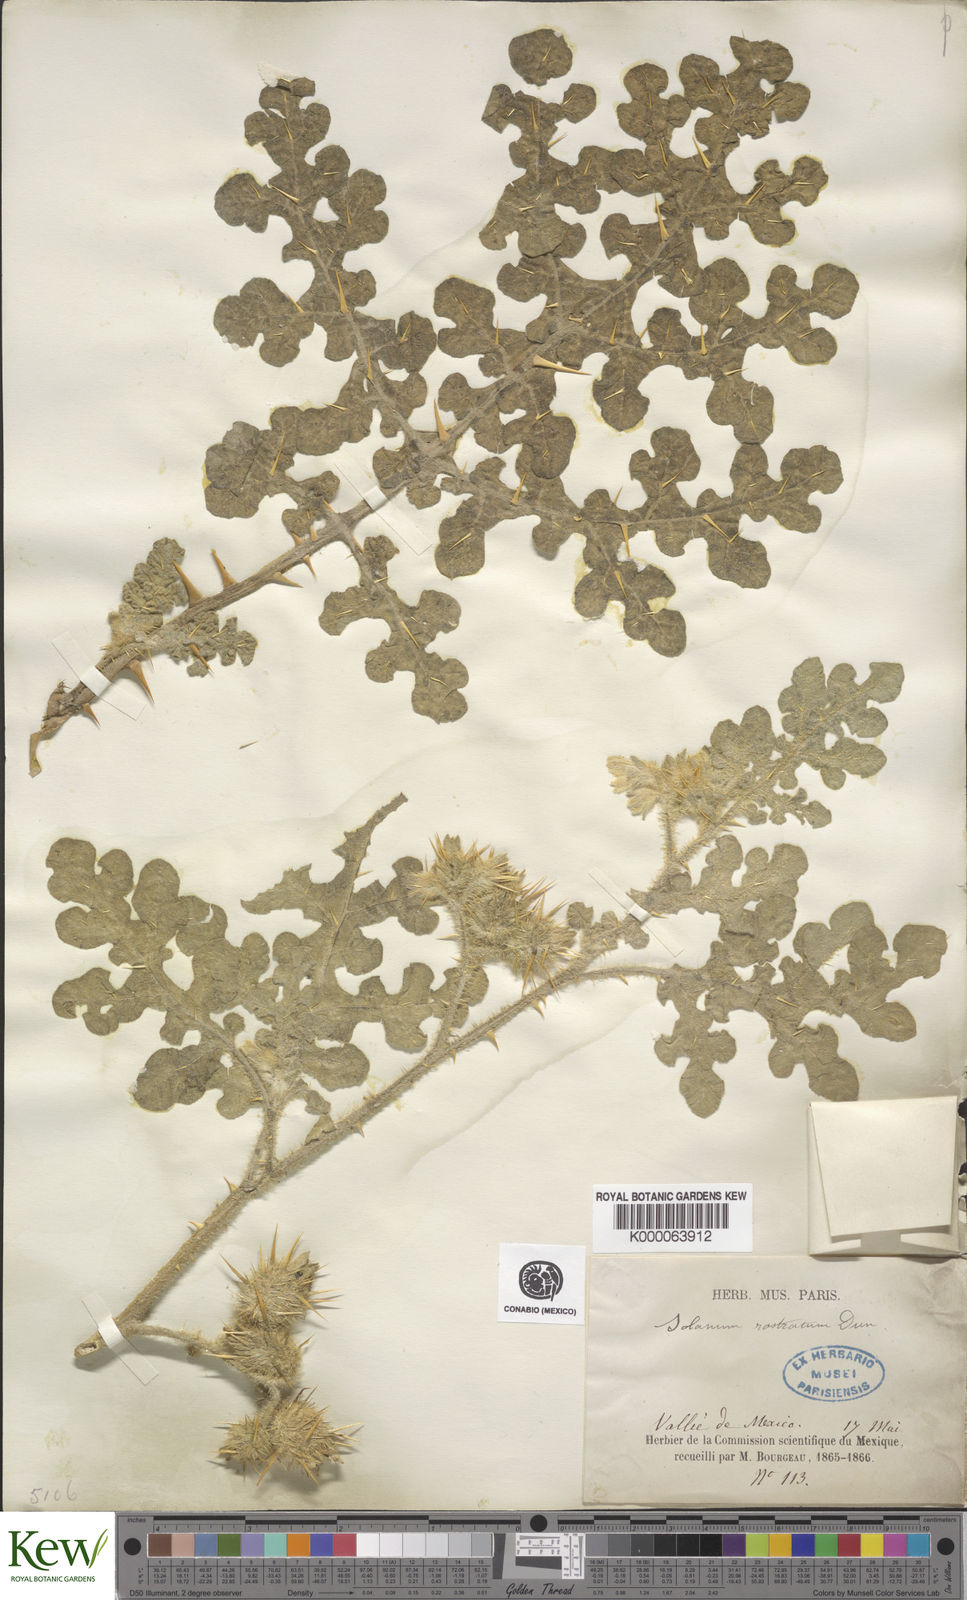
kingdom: Plantae
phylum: Tracheophyta
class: Magnoliopsida
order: Solanales
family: Solanaceae
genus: Solanum
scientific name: Solanum angustifolium
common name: Buffalobur nightshade
